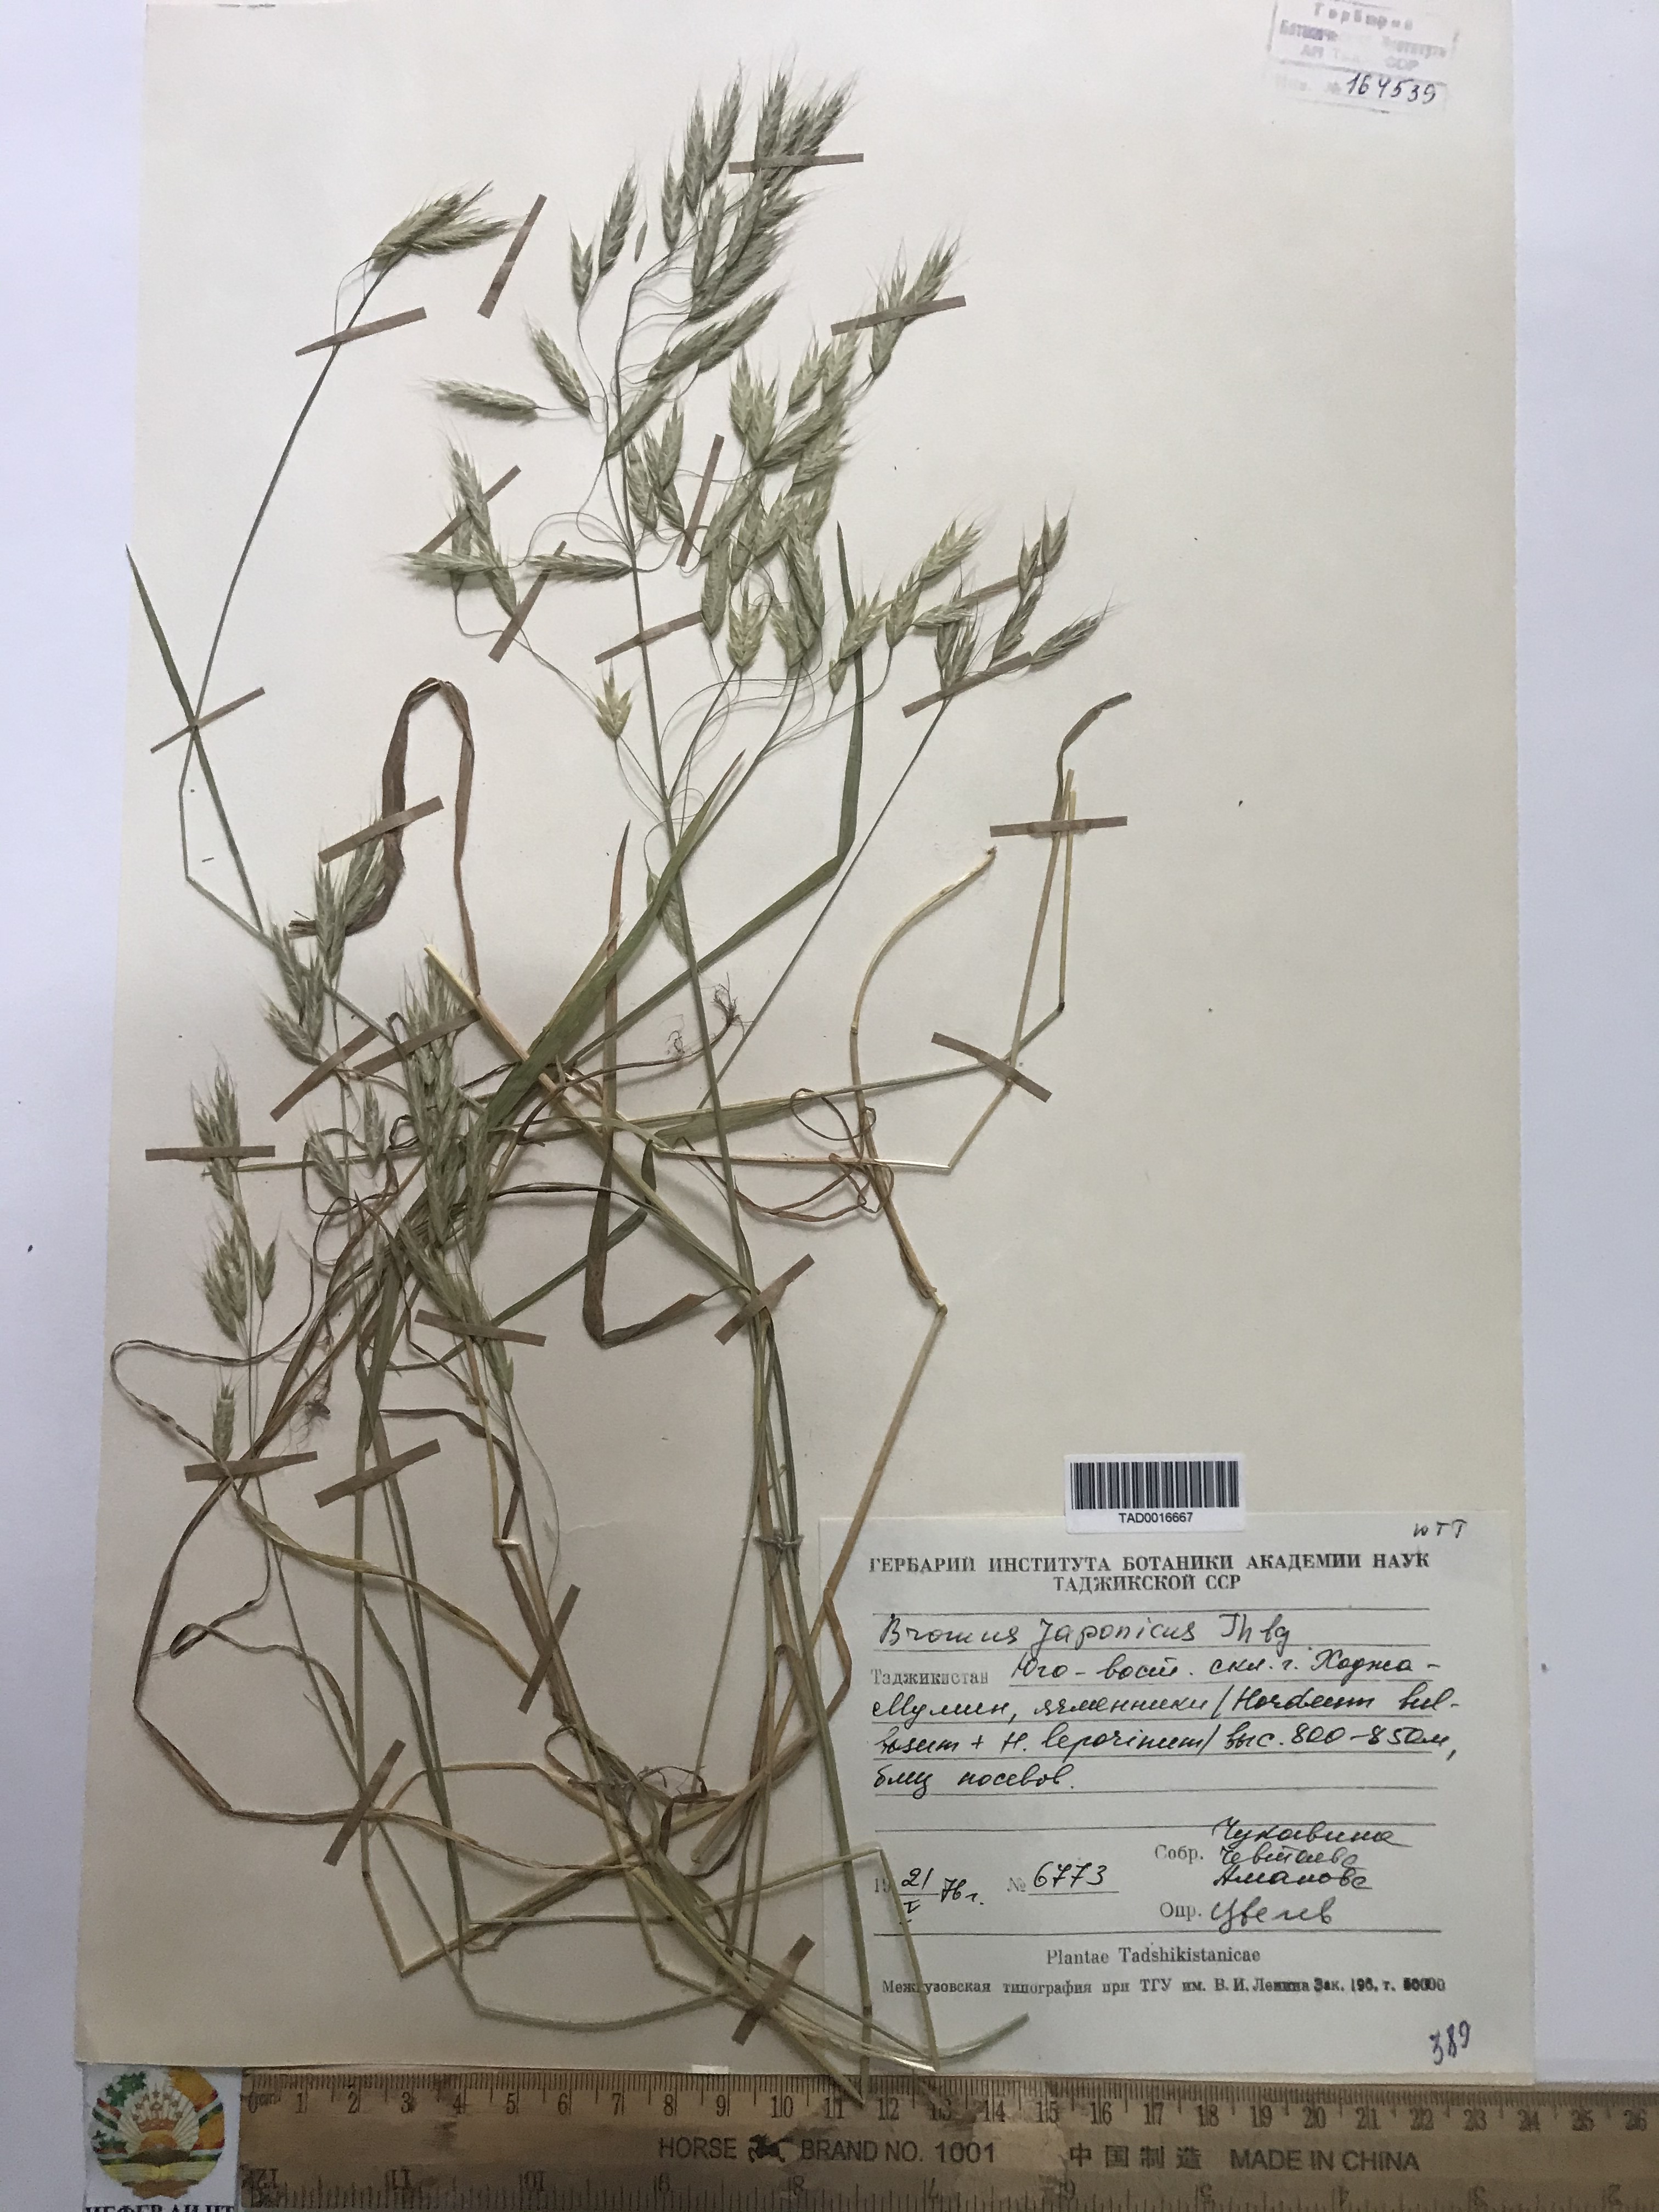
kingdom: Plantae
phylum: Tracheophyta
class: Liliopsida
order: Poales
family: Poaceae
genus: Bromus
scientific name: Bromus japonicus
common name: Japanese brome
